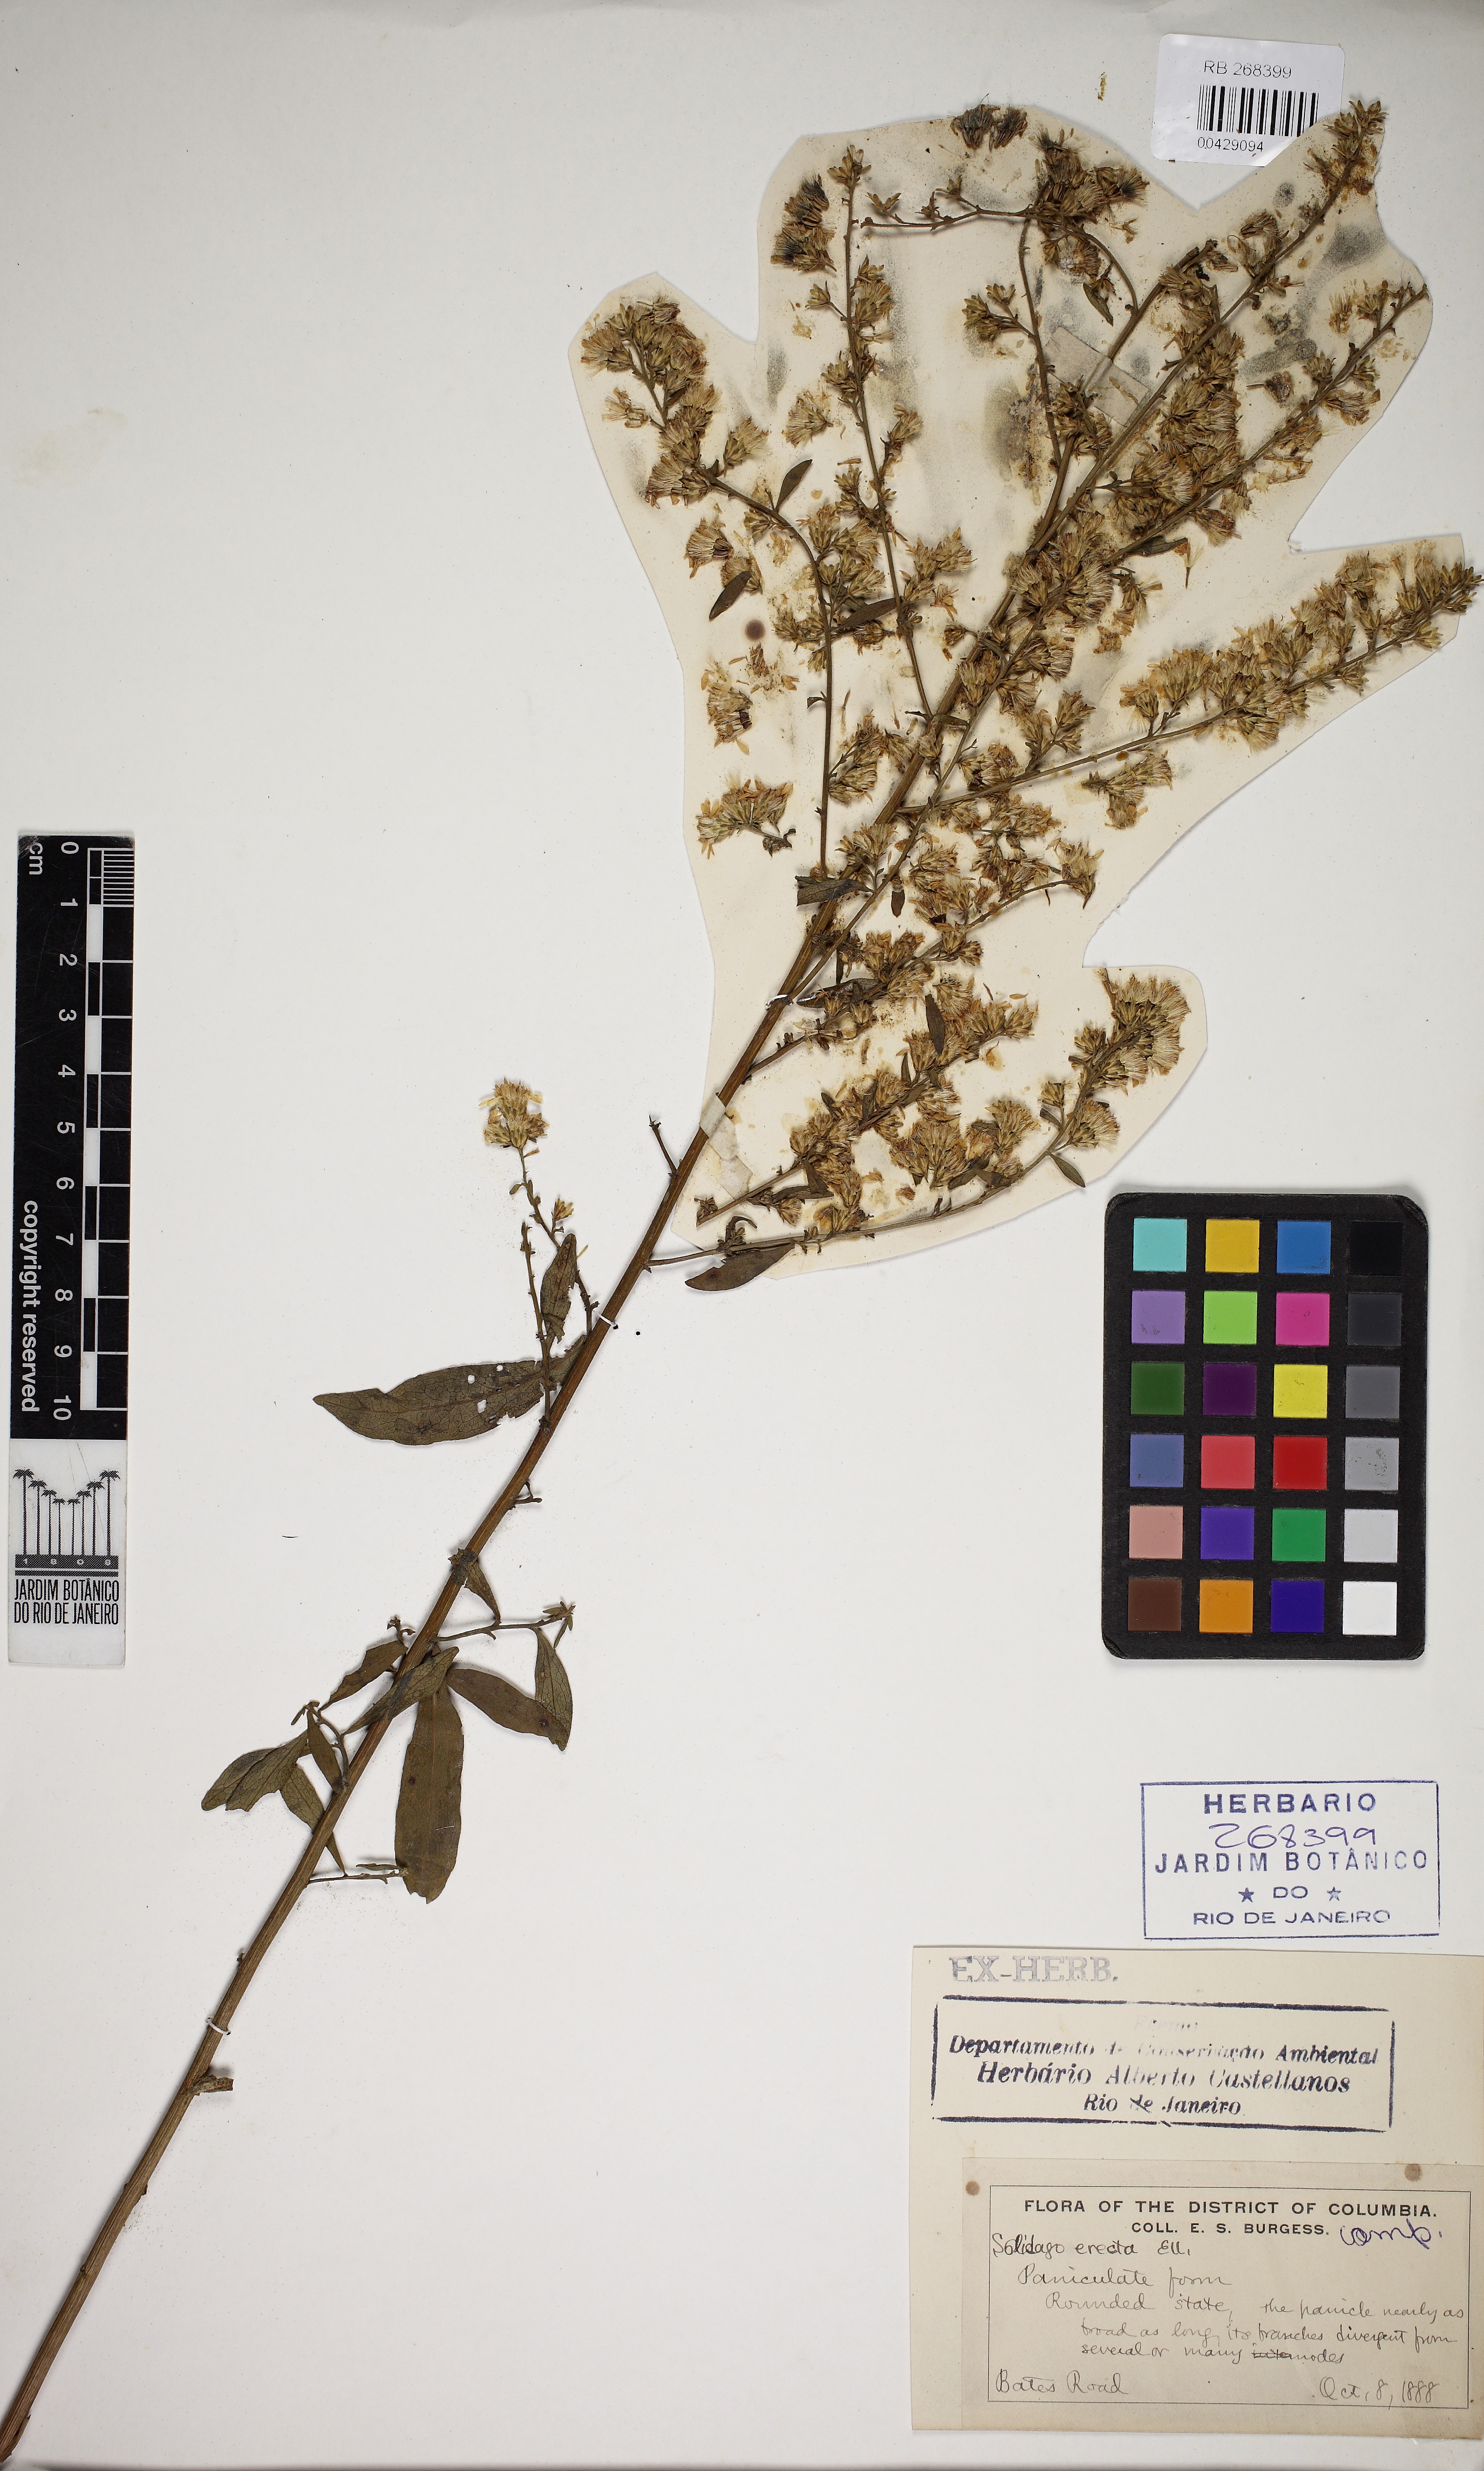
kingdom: Plantae
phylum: Tracheophyta
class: Magnoliopsida
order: Asterales
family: Asteraceae
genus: Solidago
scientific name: Solidago speciosa
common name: Showy goldenrod
